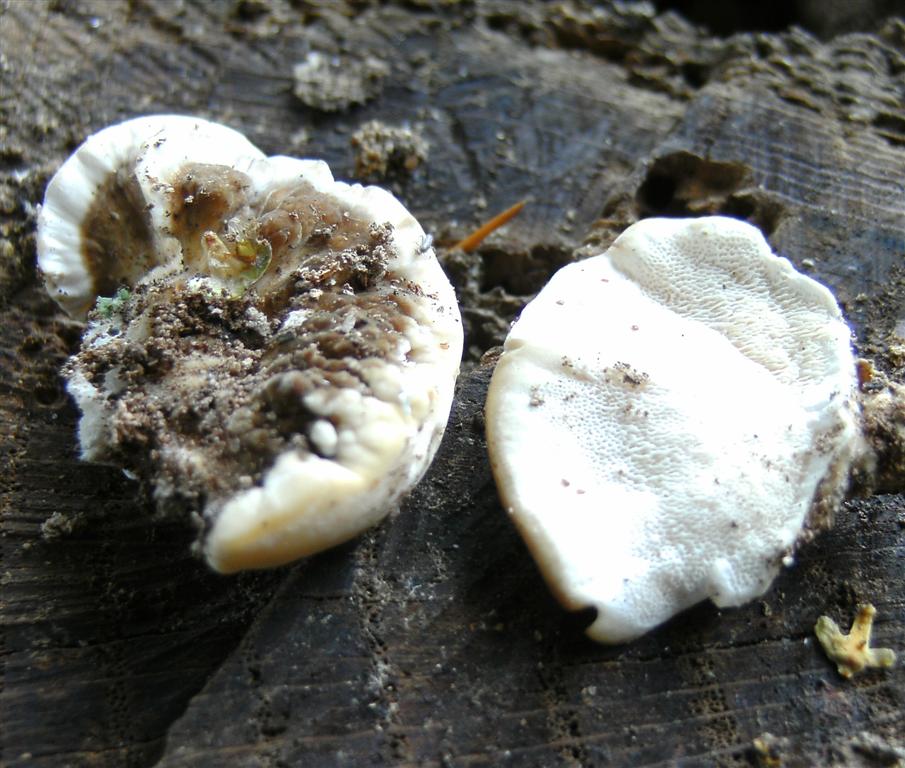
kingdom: Fungi
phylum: Basidiomycota
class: Agaricomycetes
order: Polyporales
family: Polyporaceae
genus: Trametes
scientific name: Trametes versicolor
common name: broget læderporesvamp
